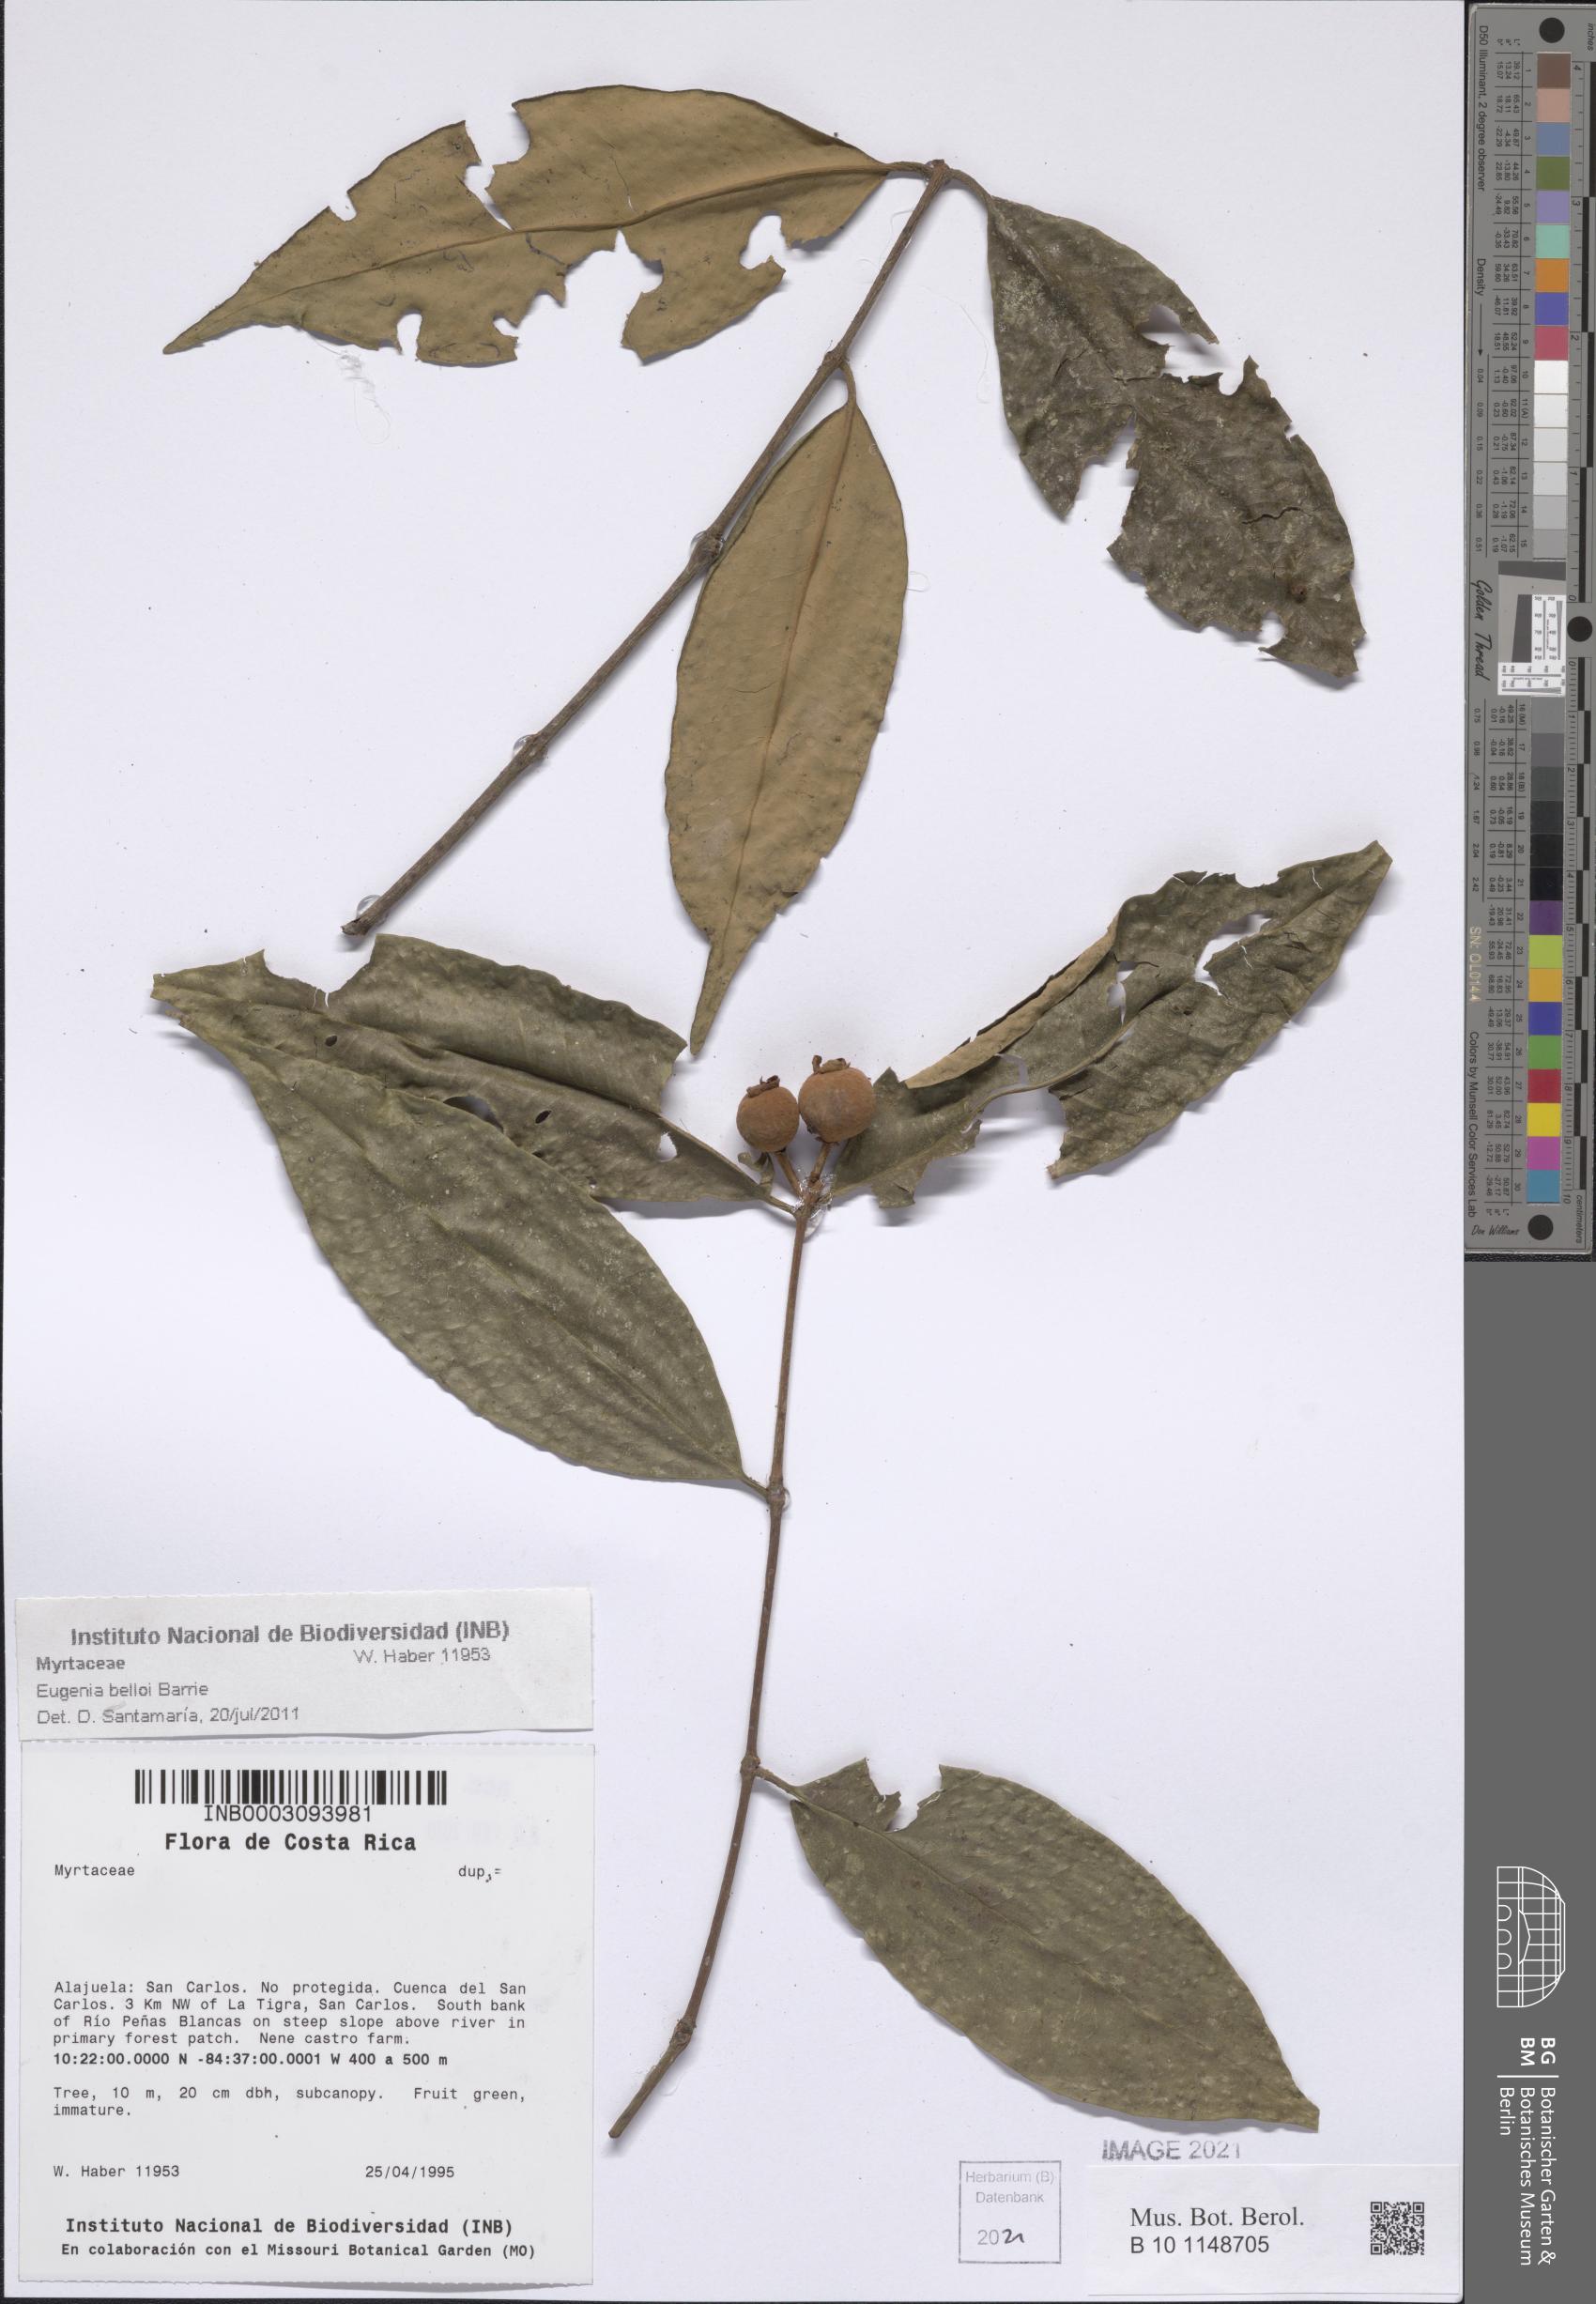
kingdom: Plantae
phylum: Tracheophyta
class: Magnoliopsida
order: Myrtales
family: Myrtaceae
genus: Eugenia
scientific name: Eugenia belloi
